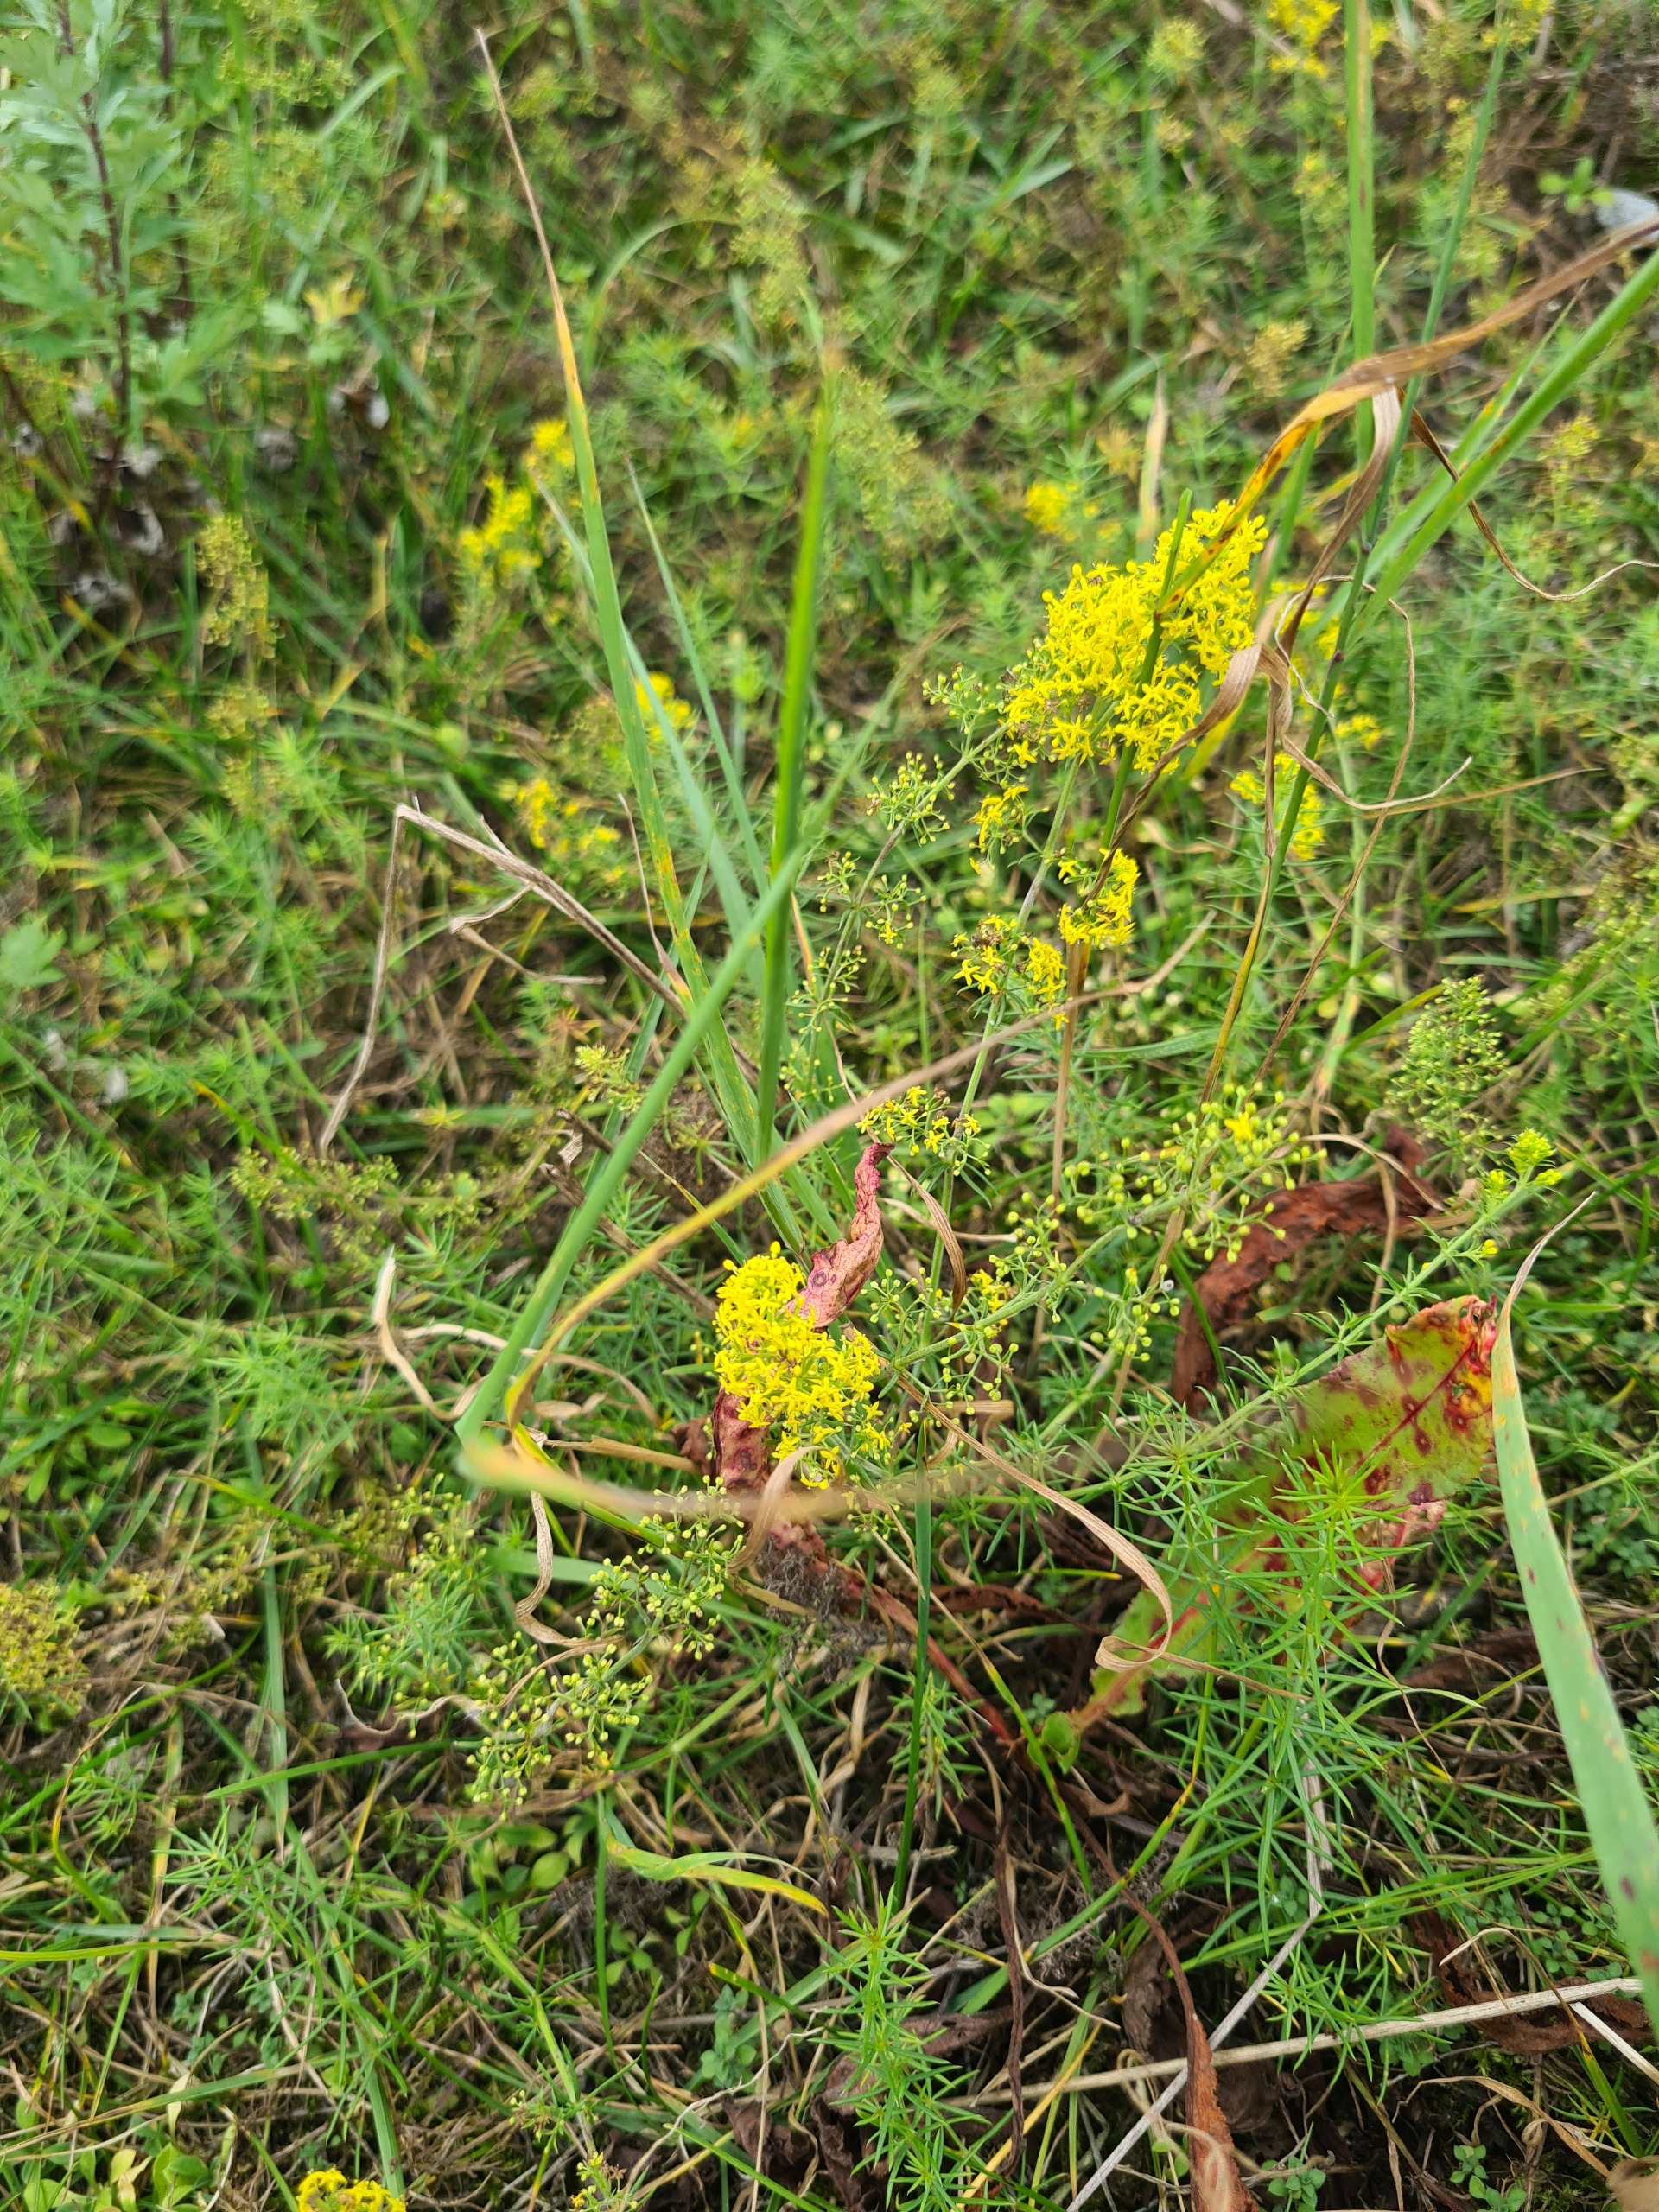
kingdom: Plantae
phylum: Tracheophyta
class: Magnoliopsida
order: Gentianales
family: Rubiaceae
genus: Galium
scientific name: Galium verum
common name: Gul snerre
